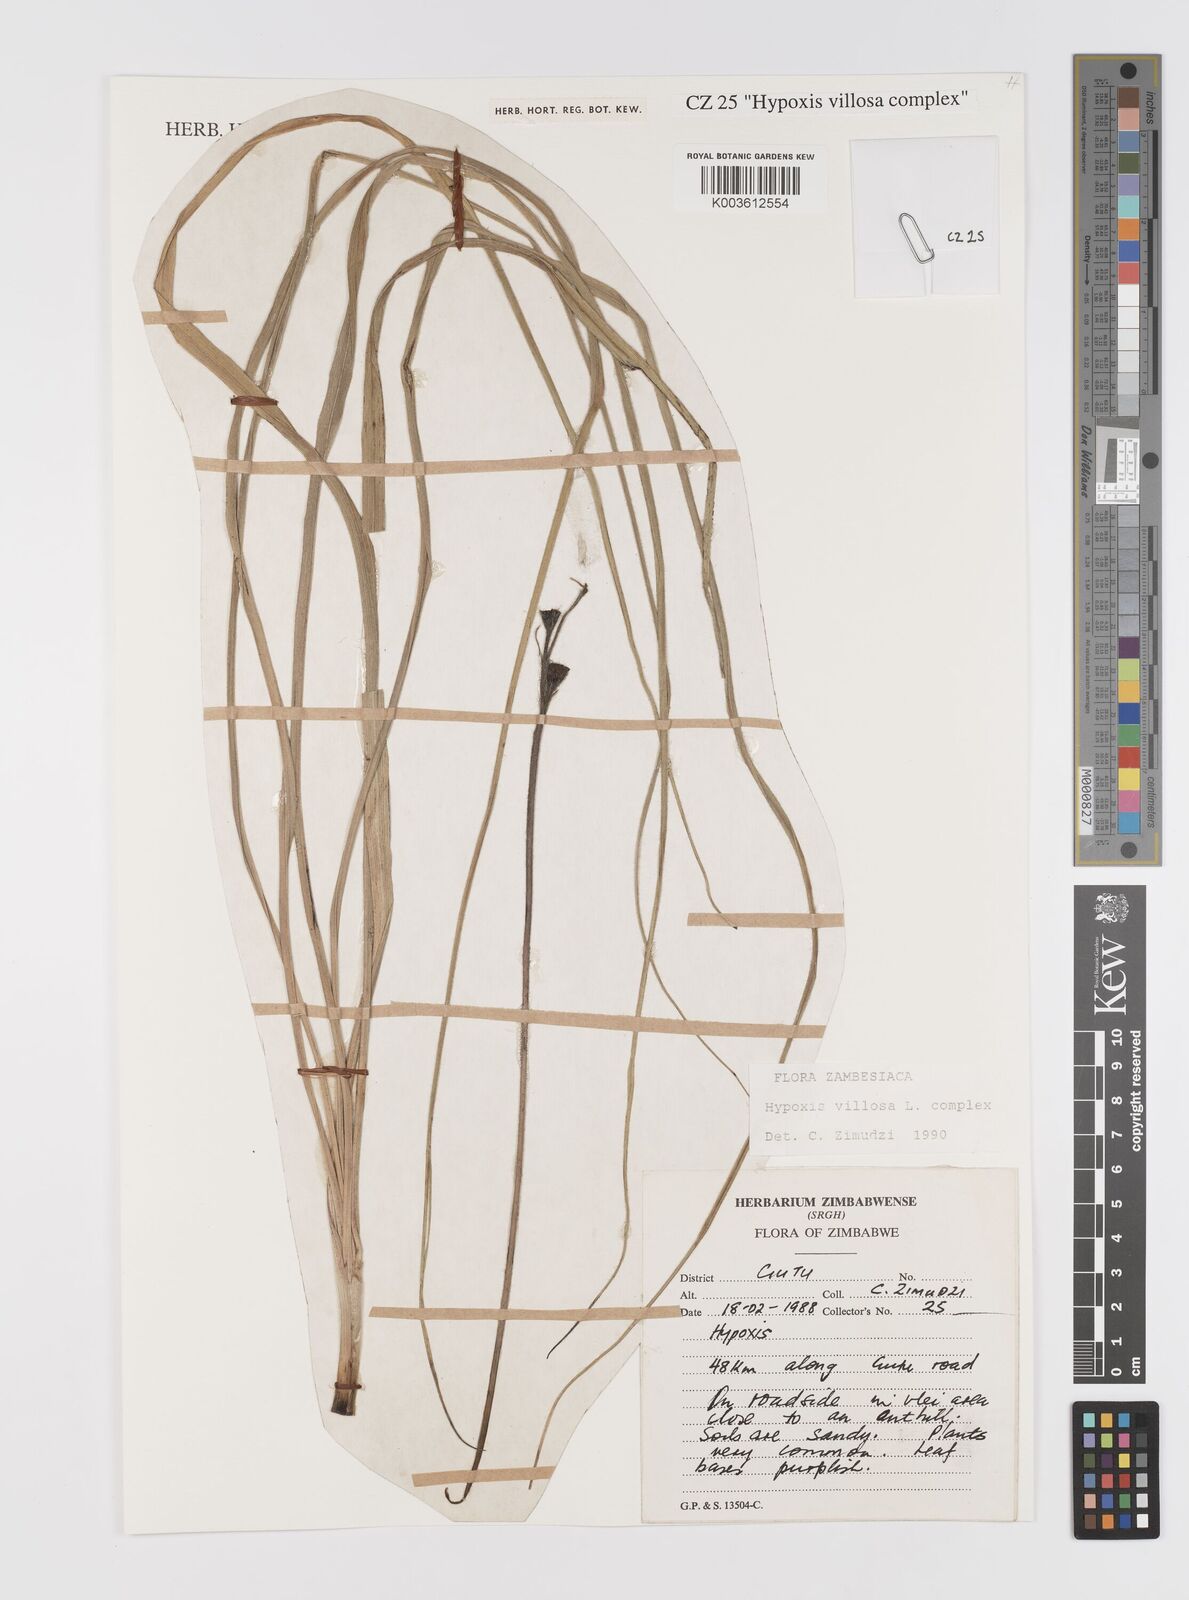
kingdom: Plantae
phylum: Tracheophyta
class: Liliopsida
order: Asparagales
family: Hypoxidaceae
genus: Hypoxis
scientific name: Hypoxis villosa
